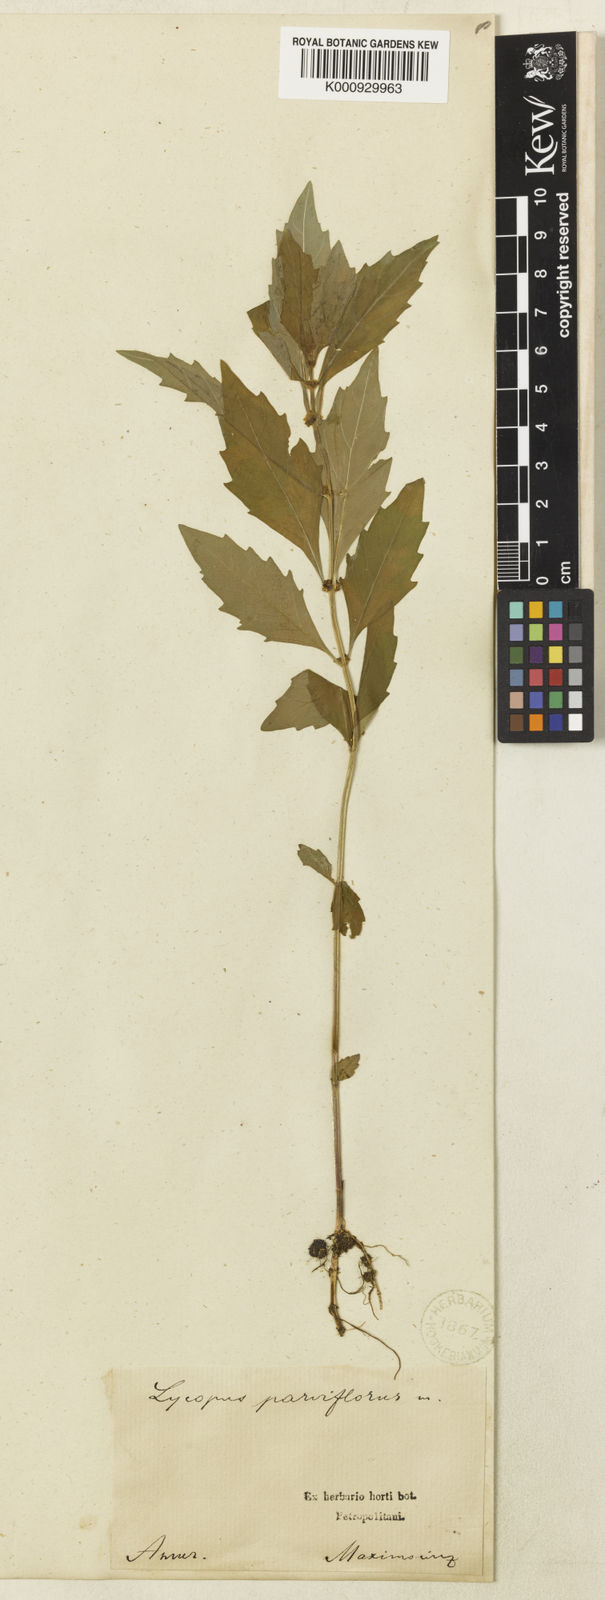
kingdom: Plantae
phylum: Tracheophyta
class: Magnoliopsida
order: Lamiales
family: Lamiaceae
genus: Lycopus
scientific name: Lycopus uniflorus
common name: Northern bugleweed
